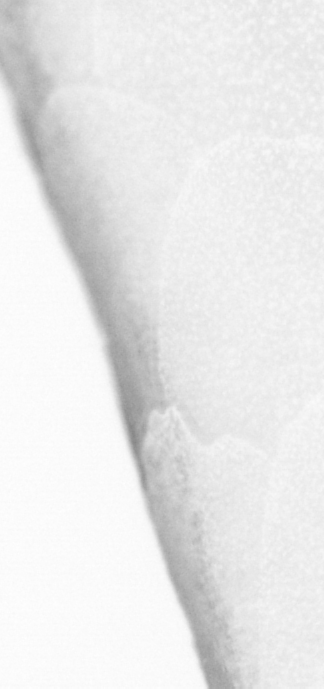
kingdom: Animalia
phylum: Chordata
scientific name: Chordata
